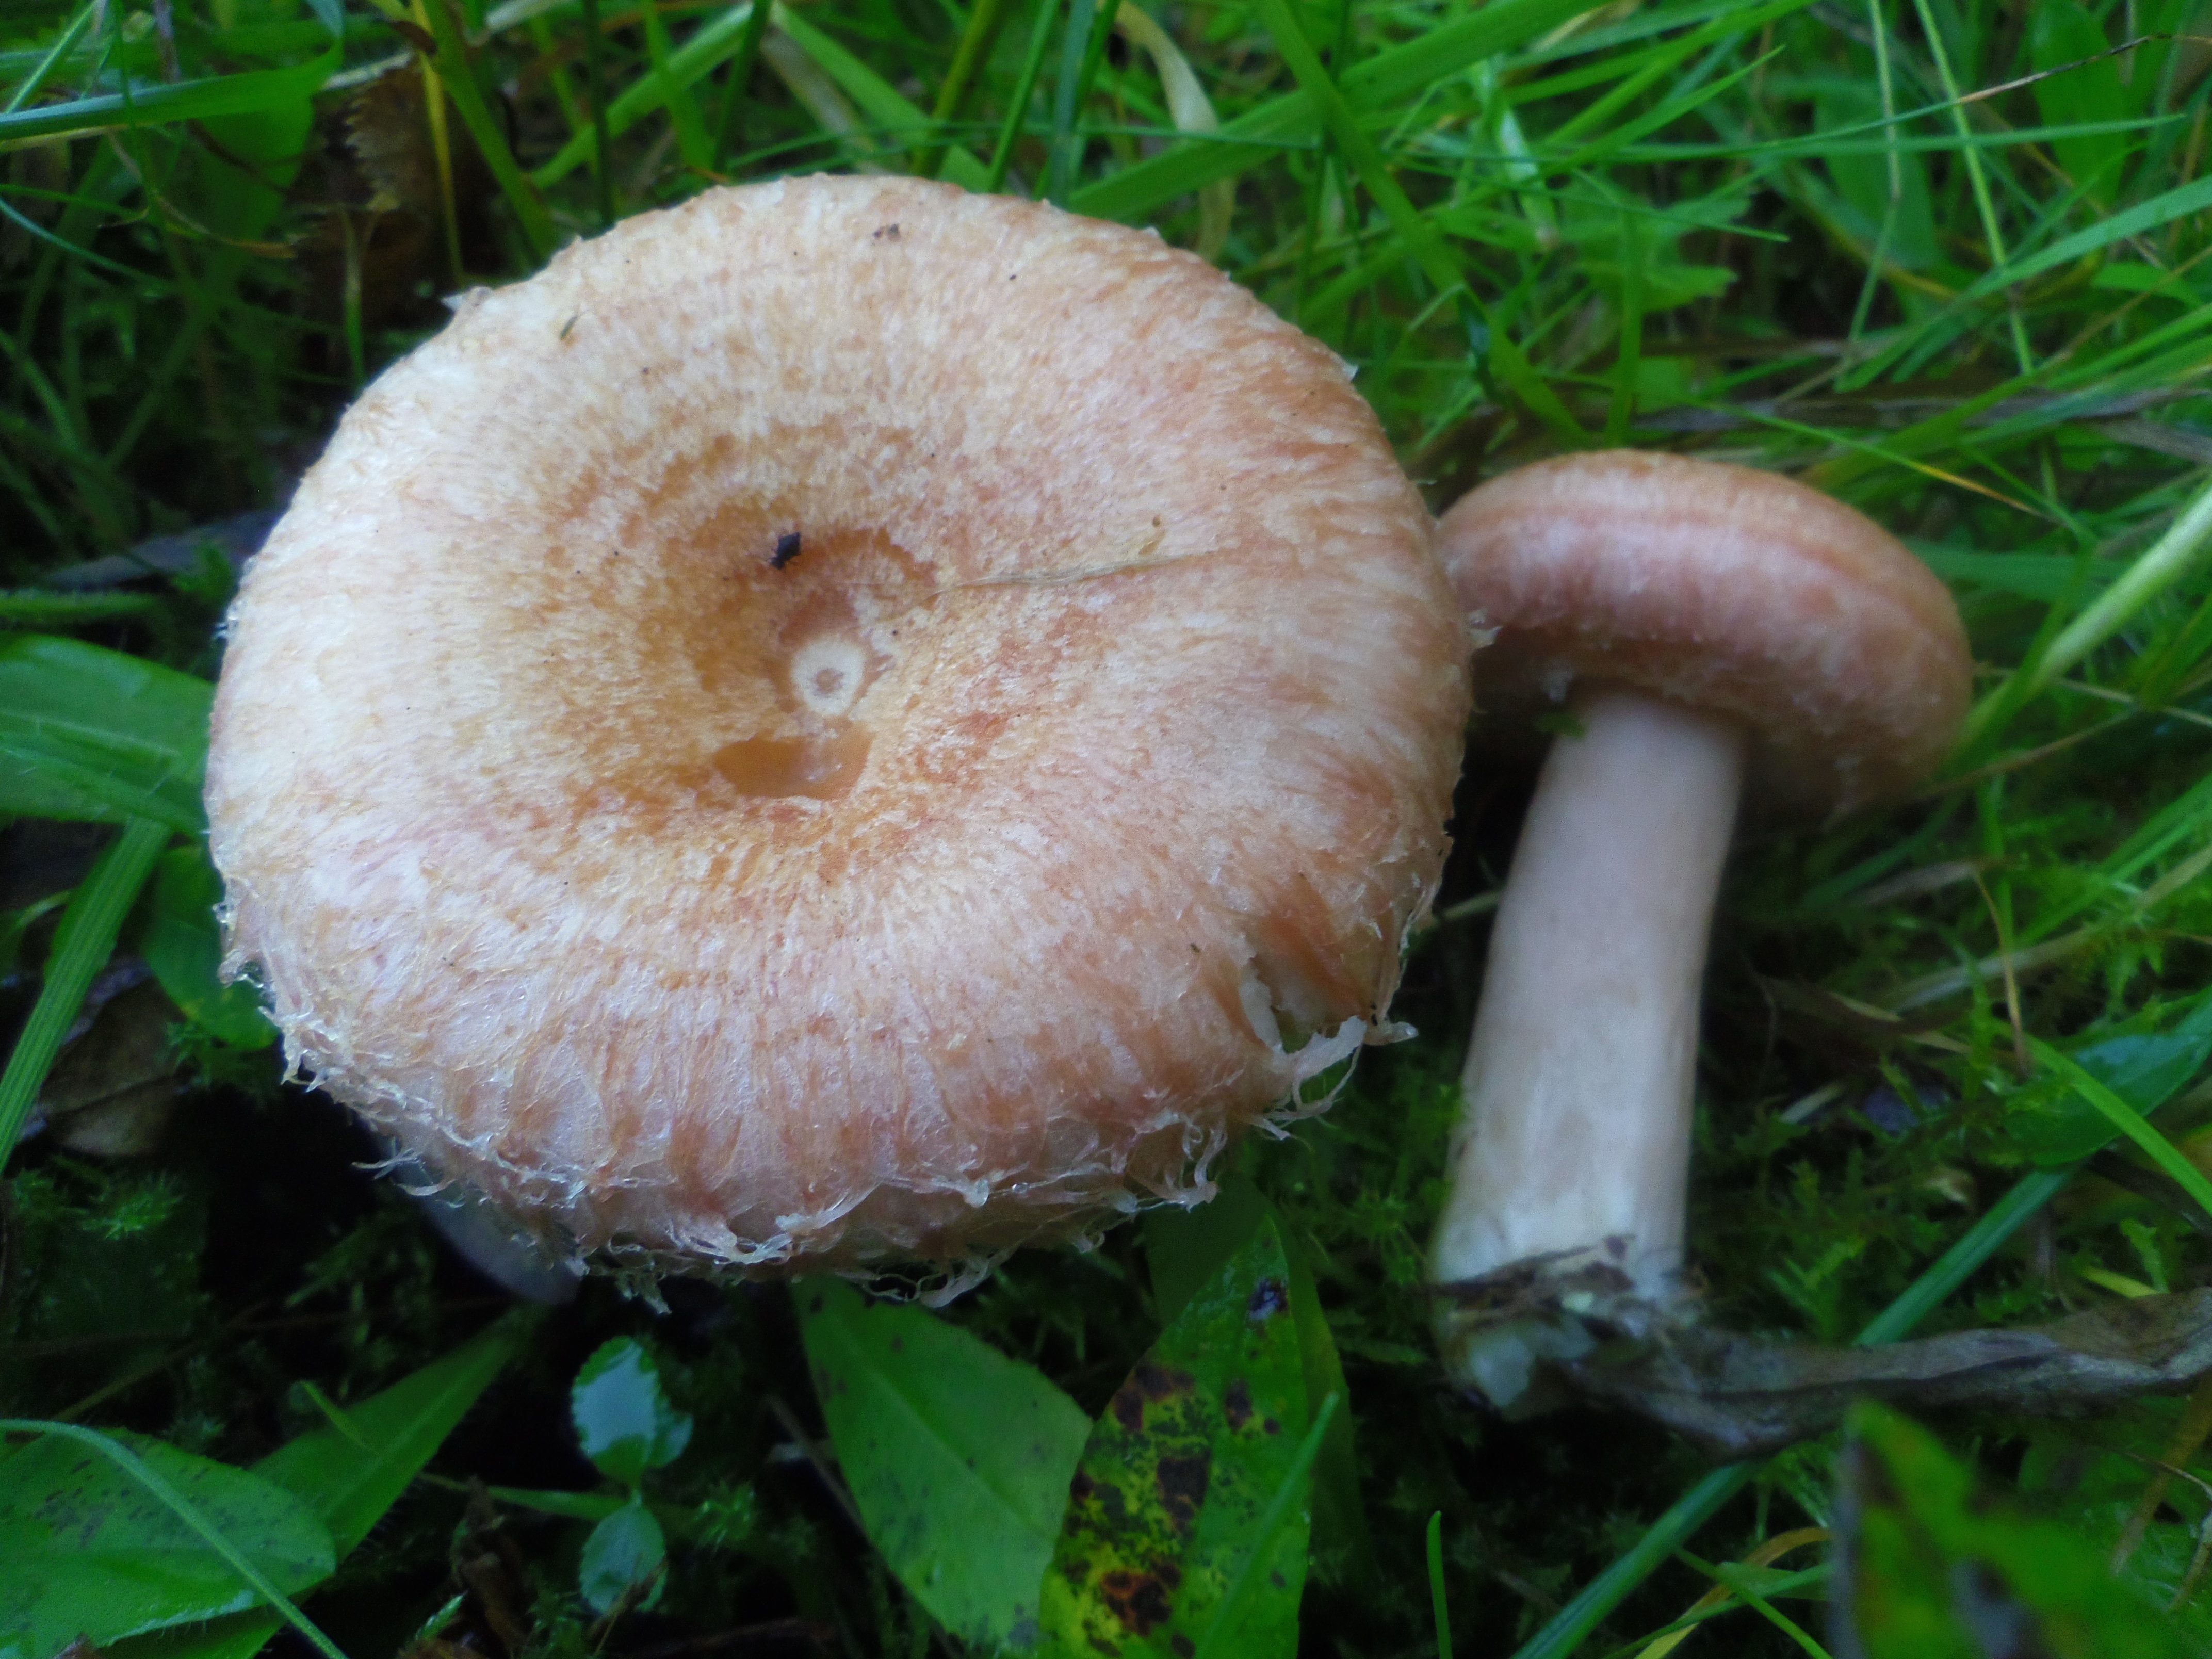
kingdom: Fungi
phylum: Basidiomycota
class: Agaricomycetes
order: Russulales
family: Russulaceae
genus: Lactarius
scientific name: Lactarius torminosus
